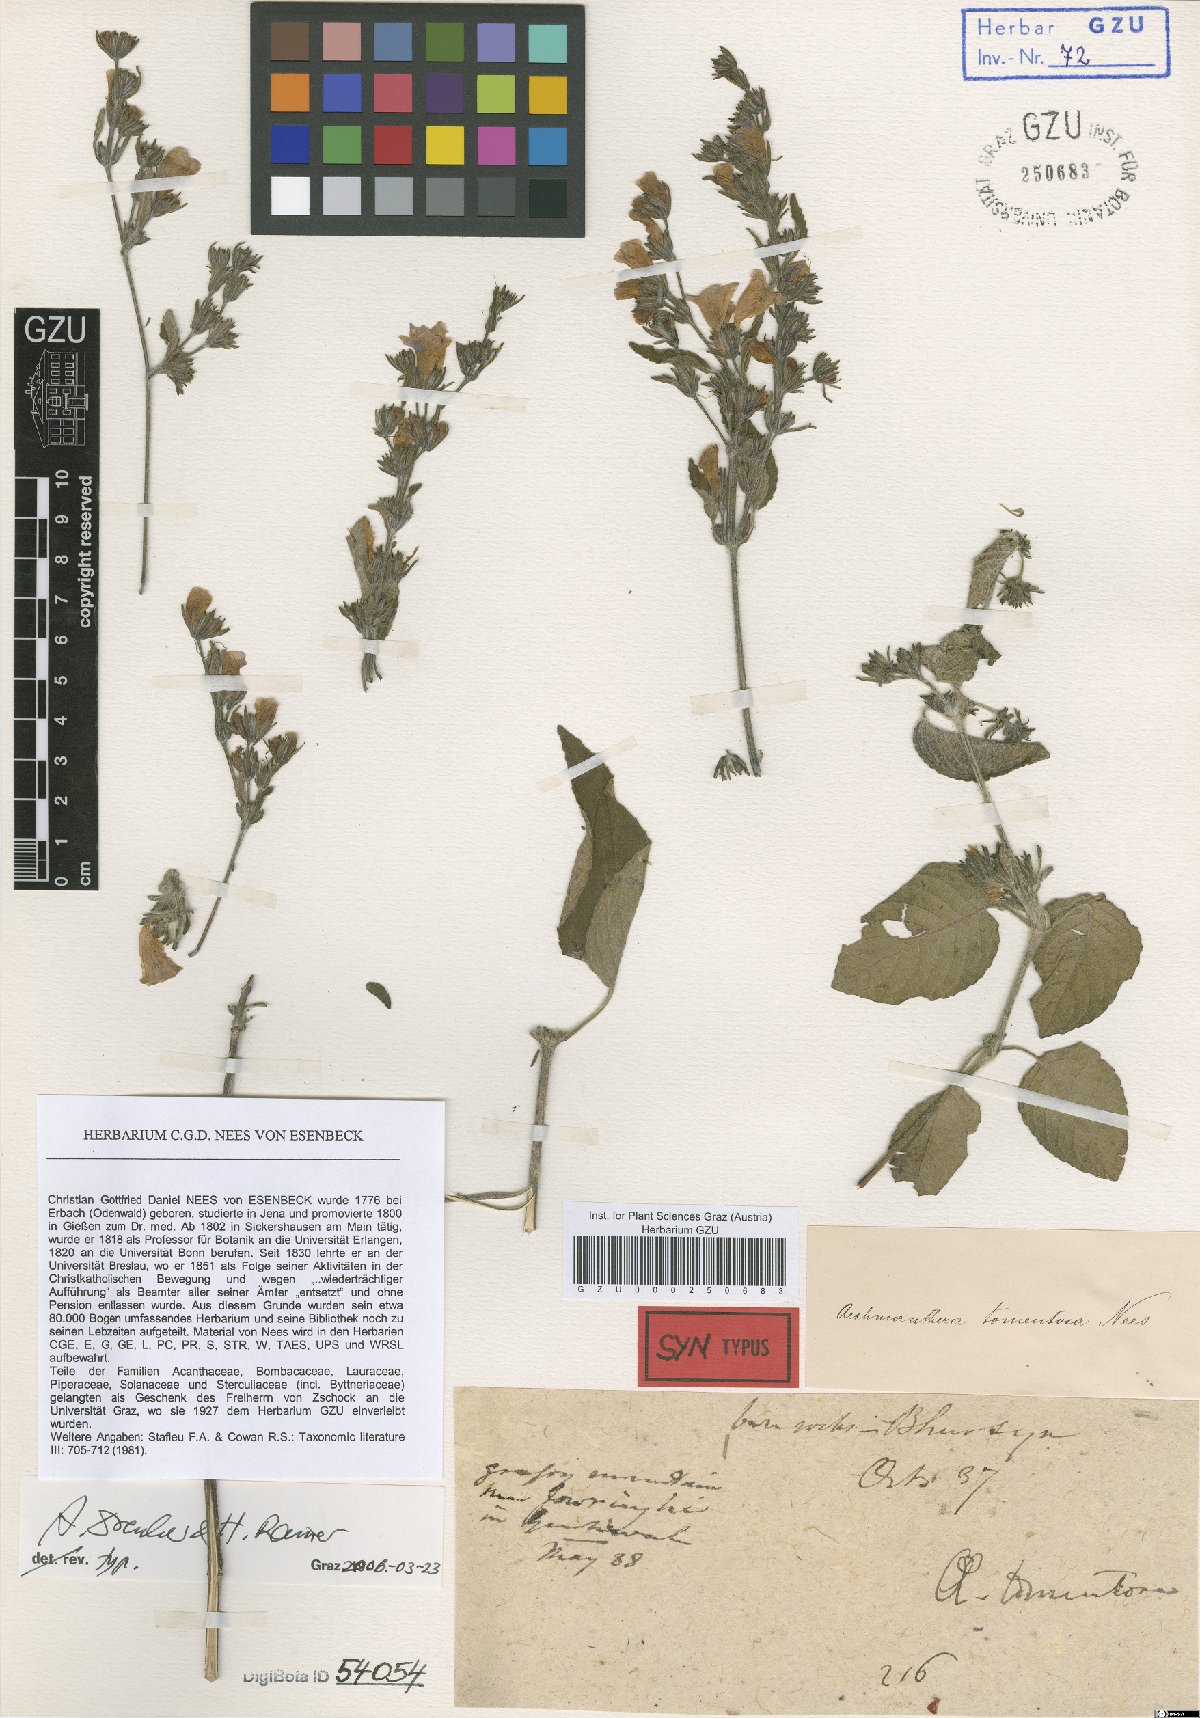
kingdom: Plantae
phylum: Tracheophyta
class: Magnoliopsida
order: Lamiales
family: Acanthaceae
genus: Strobilanthes
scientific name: Strobilanthes tomentosa
